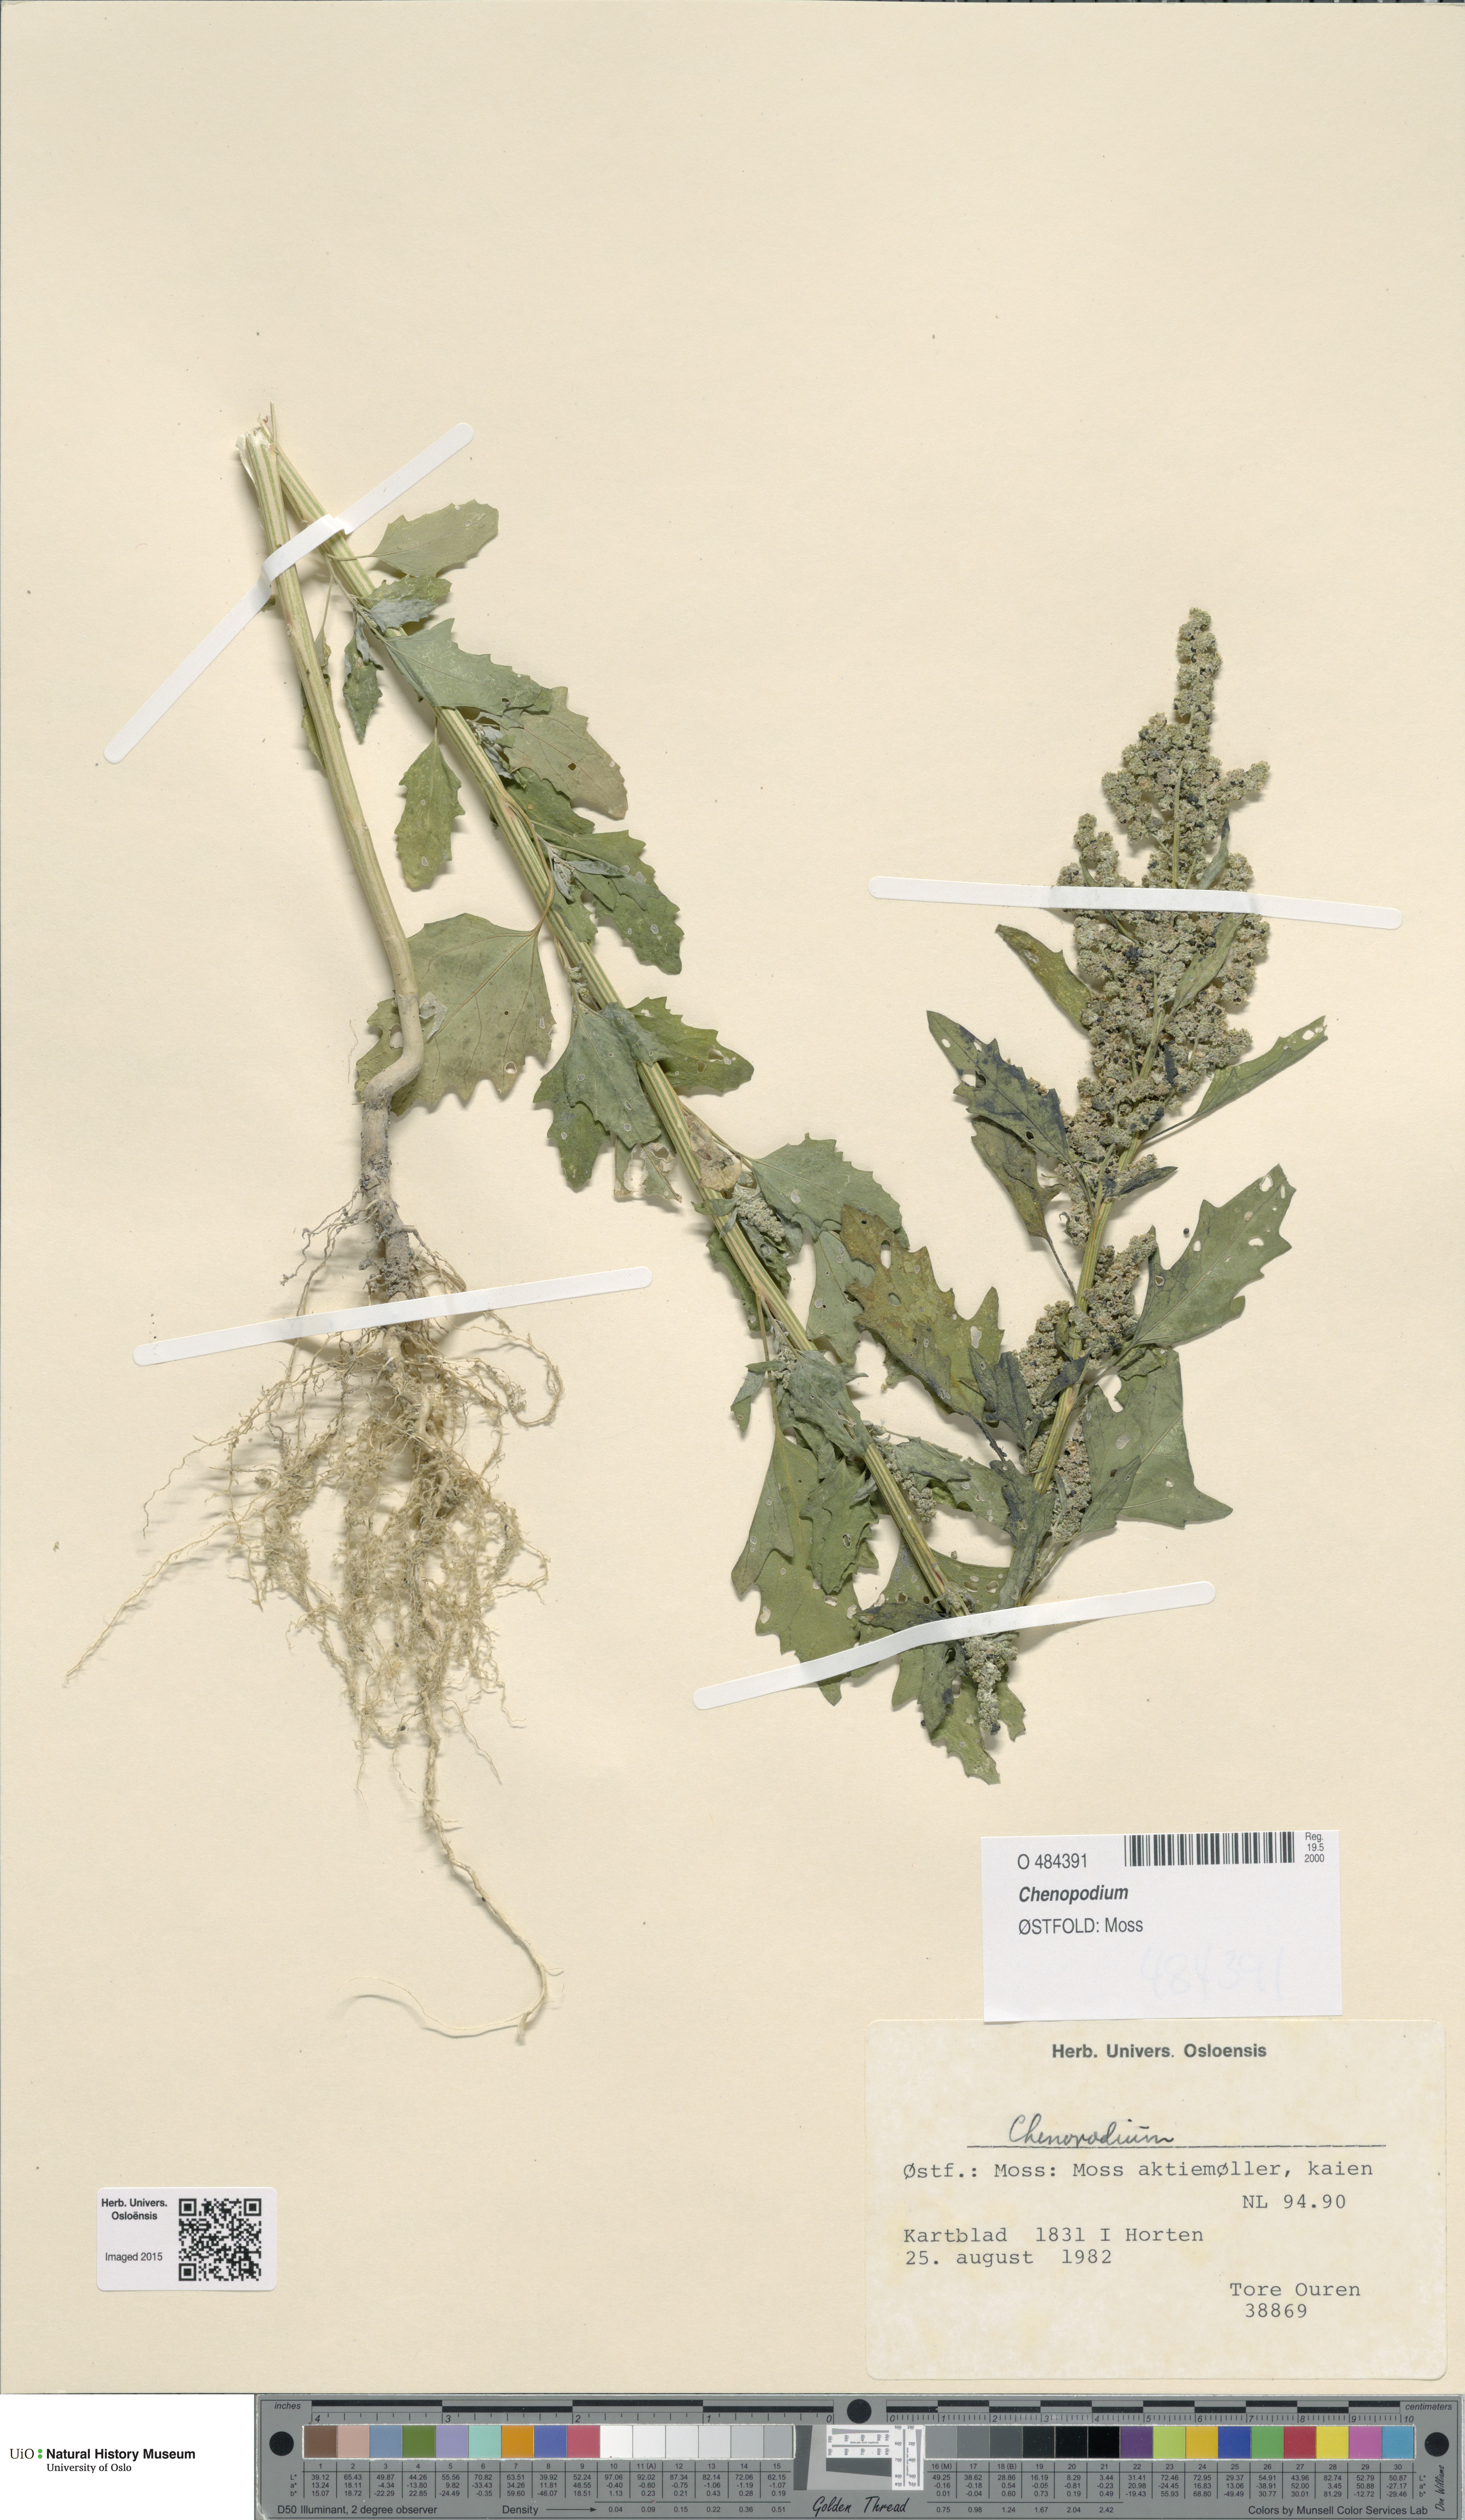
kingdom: Plantae
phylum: Tracheophyta
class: Magnoliopsida
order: Caryophyllales
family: Amaranthaceae
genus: Chenopodium
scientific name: Chenopodium
